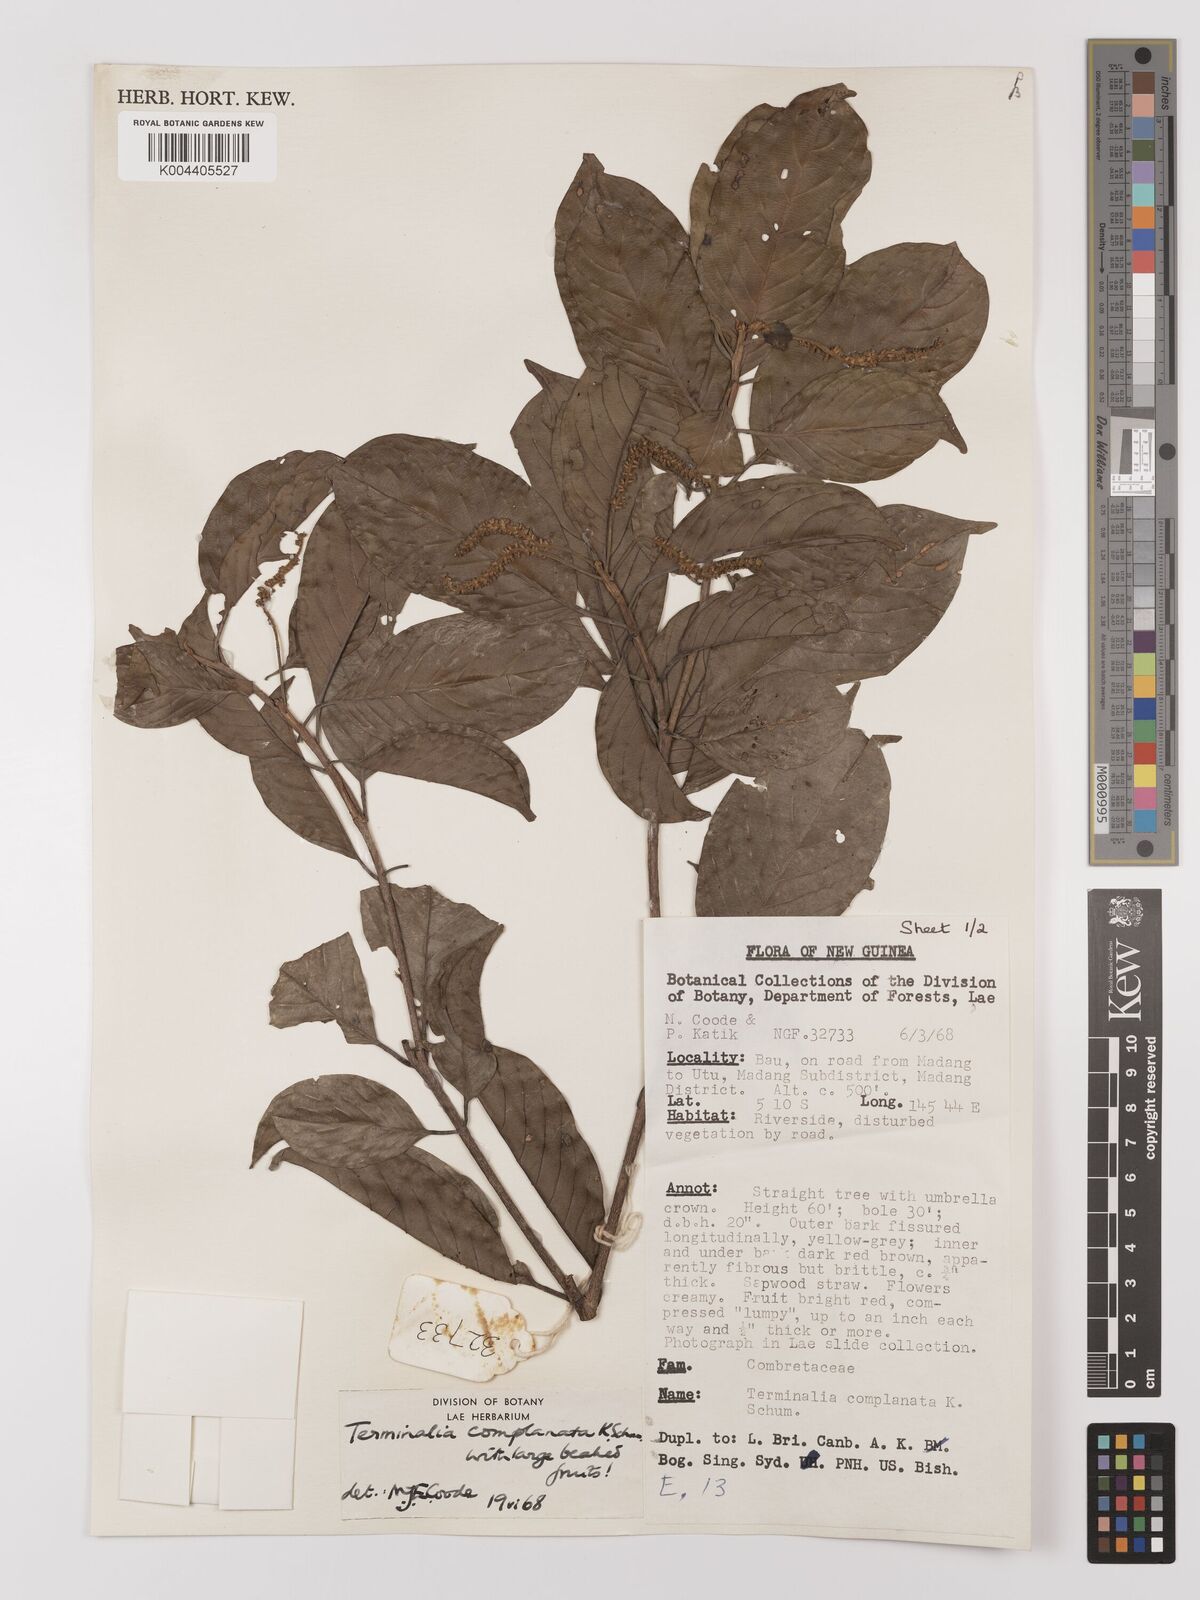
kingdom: Plantae
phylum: Tracheophyta
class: Magnoliopsida
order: Myrtales
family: Combretaceae
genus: Terminalia
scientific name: Terminalia complanata
